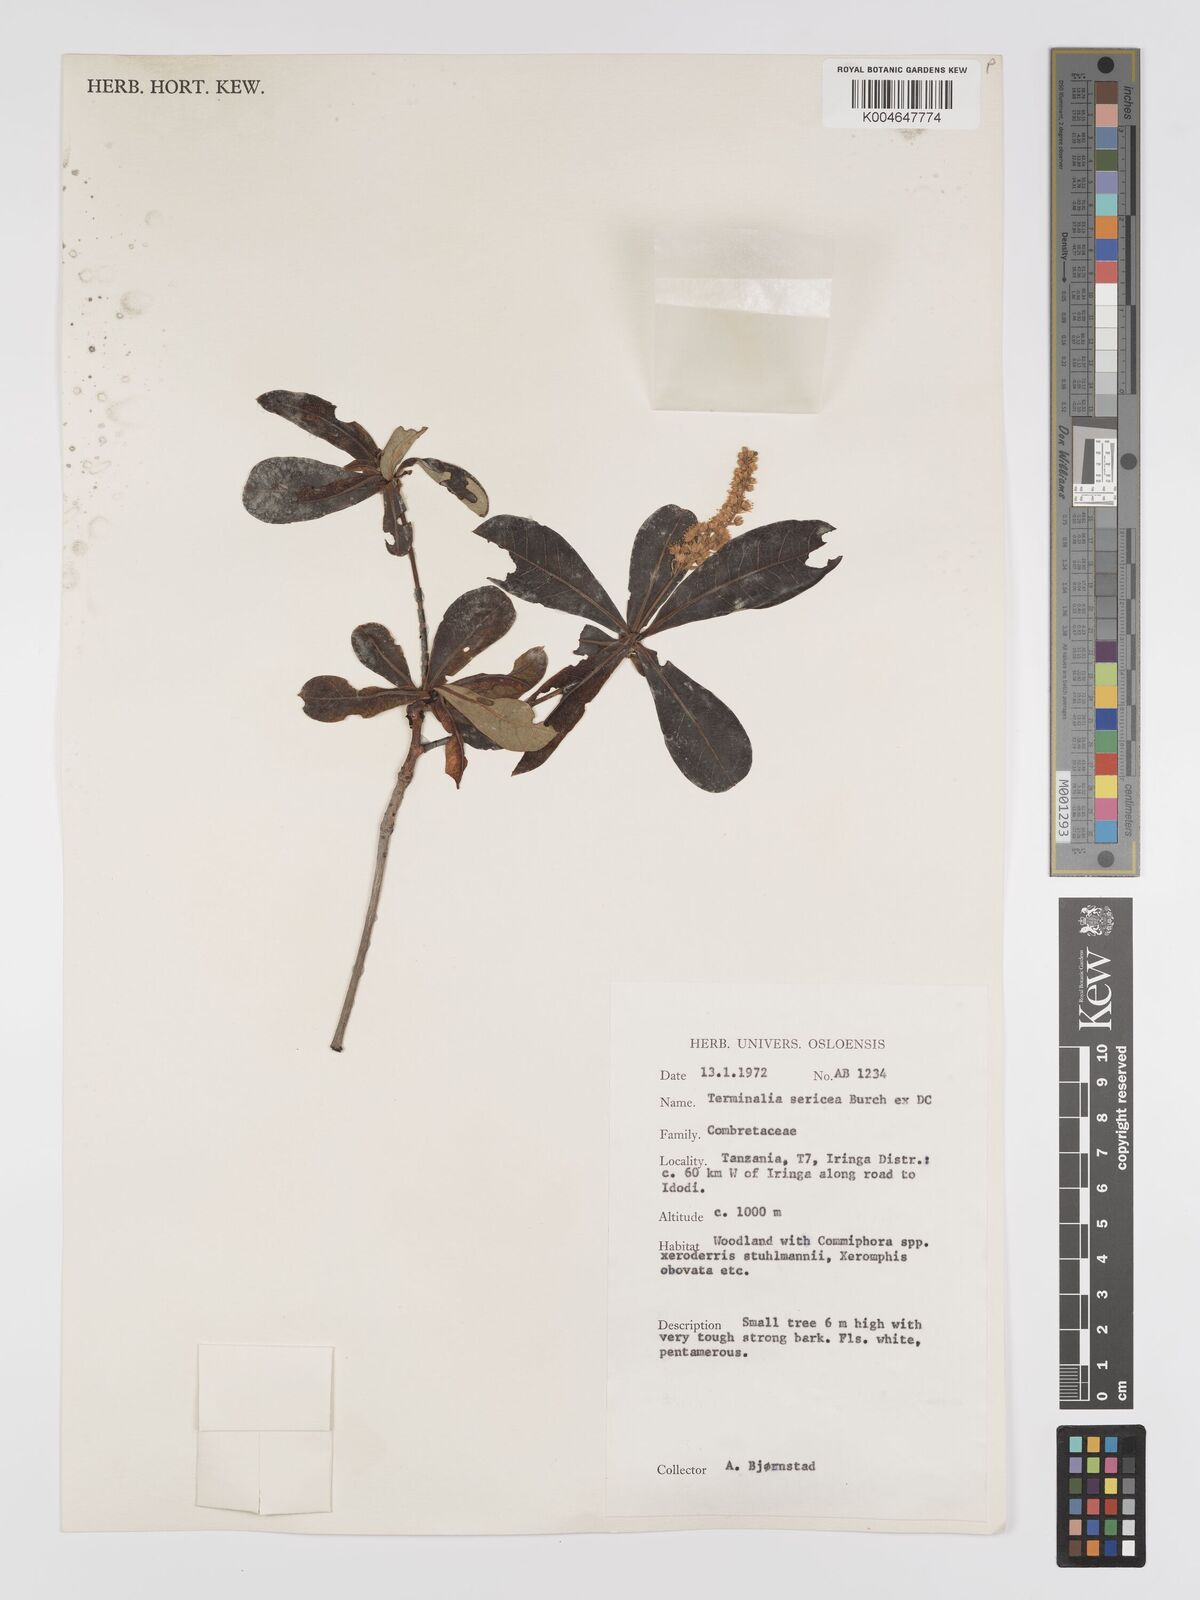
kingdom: Plantae
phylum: Tracheophyta
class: Magnoliopsida
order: Myrtales
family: Combretaceae
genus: Terminalia
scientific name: Terminalia
